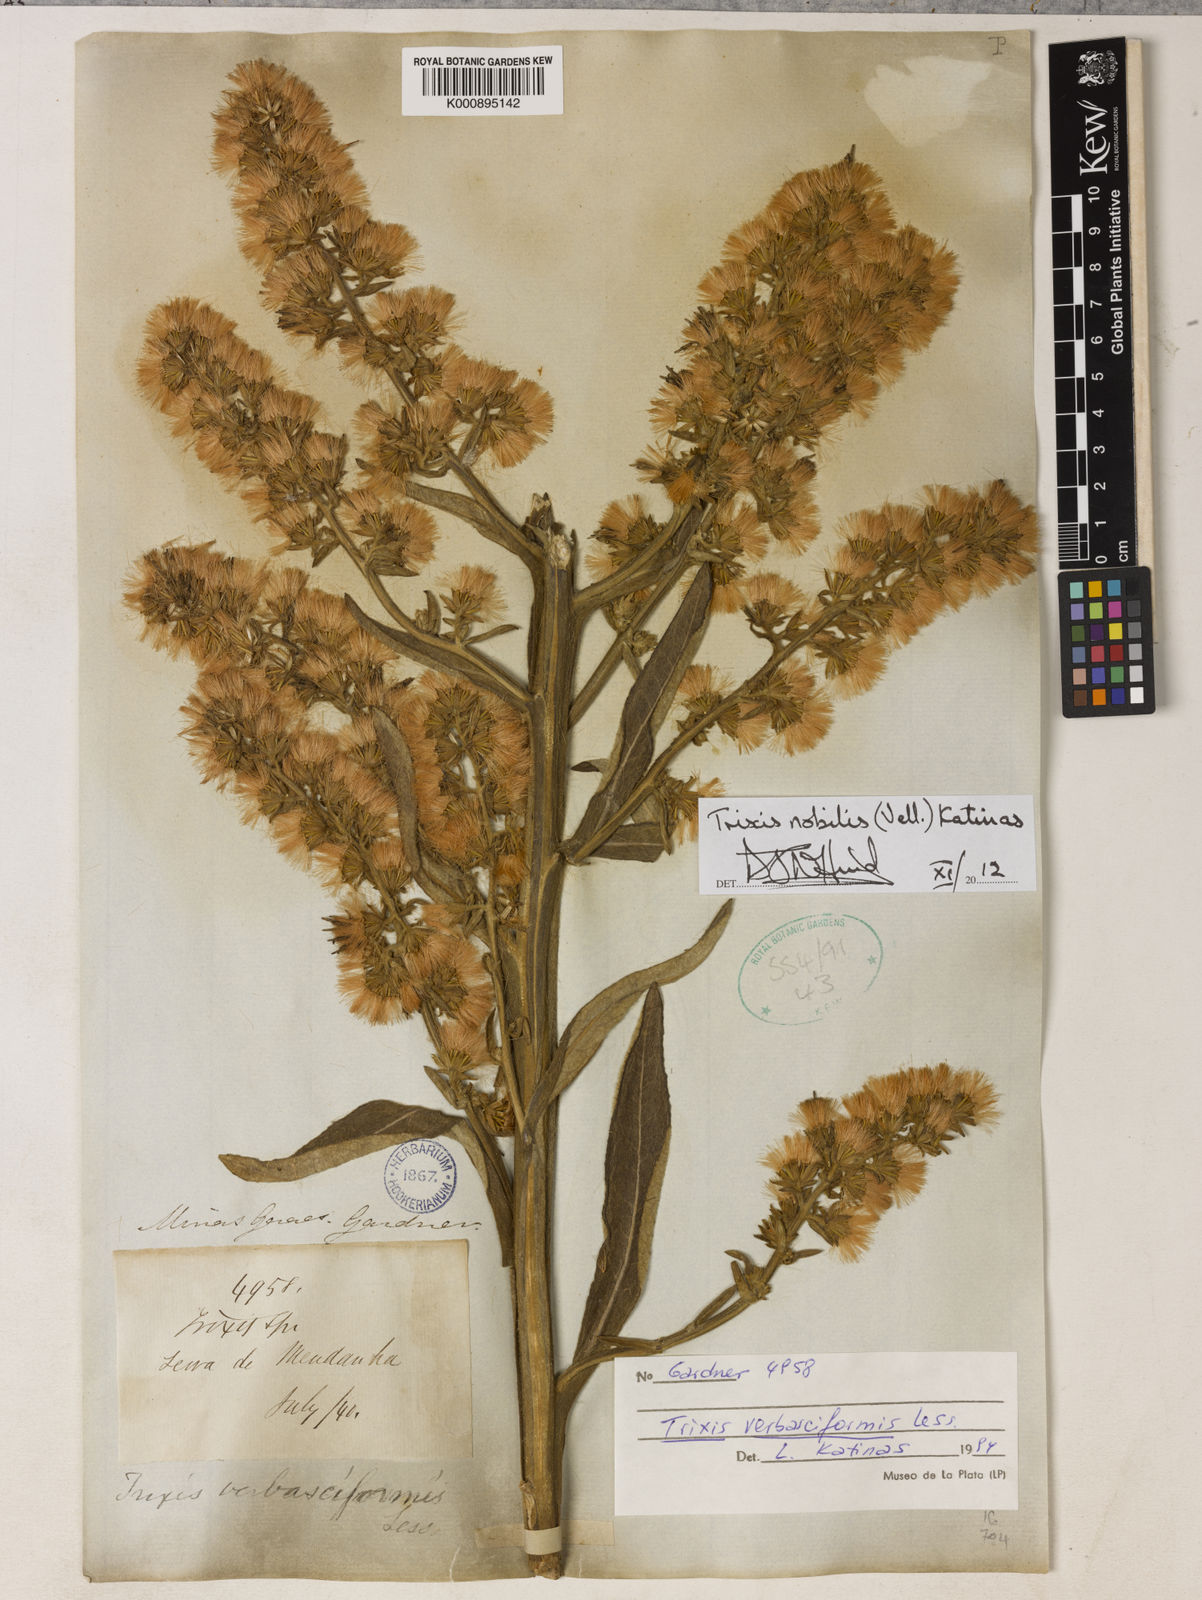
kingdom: Plantae
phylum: Tracheophyta
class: Magnoliopsida
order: Asterales
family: Asteraceae
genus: Trixis
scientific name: Trixis nobilis
